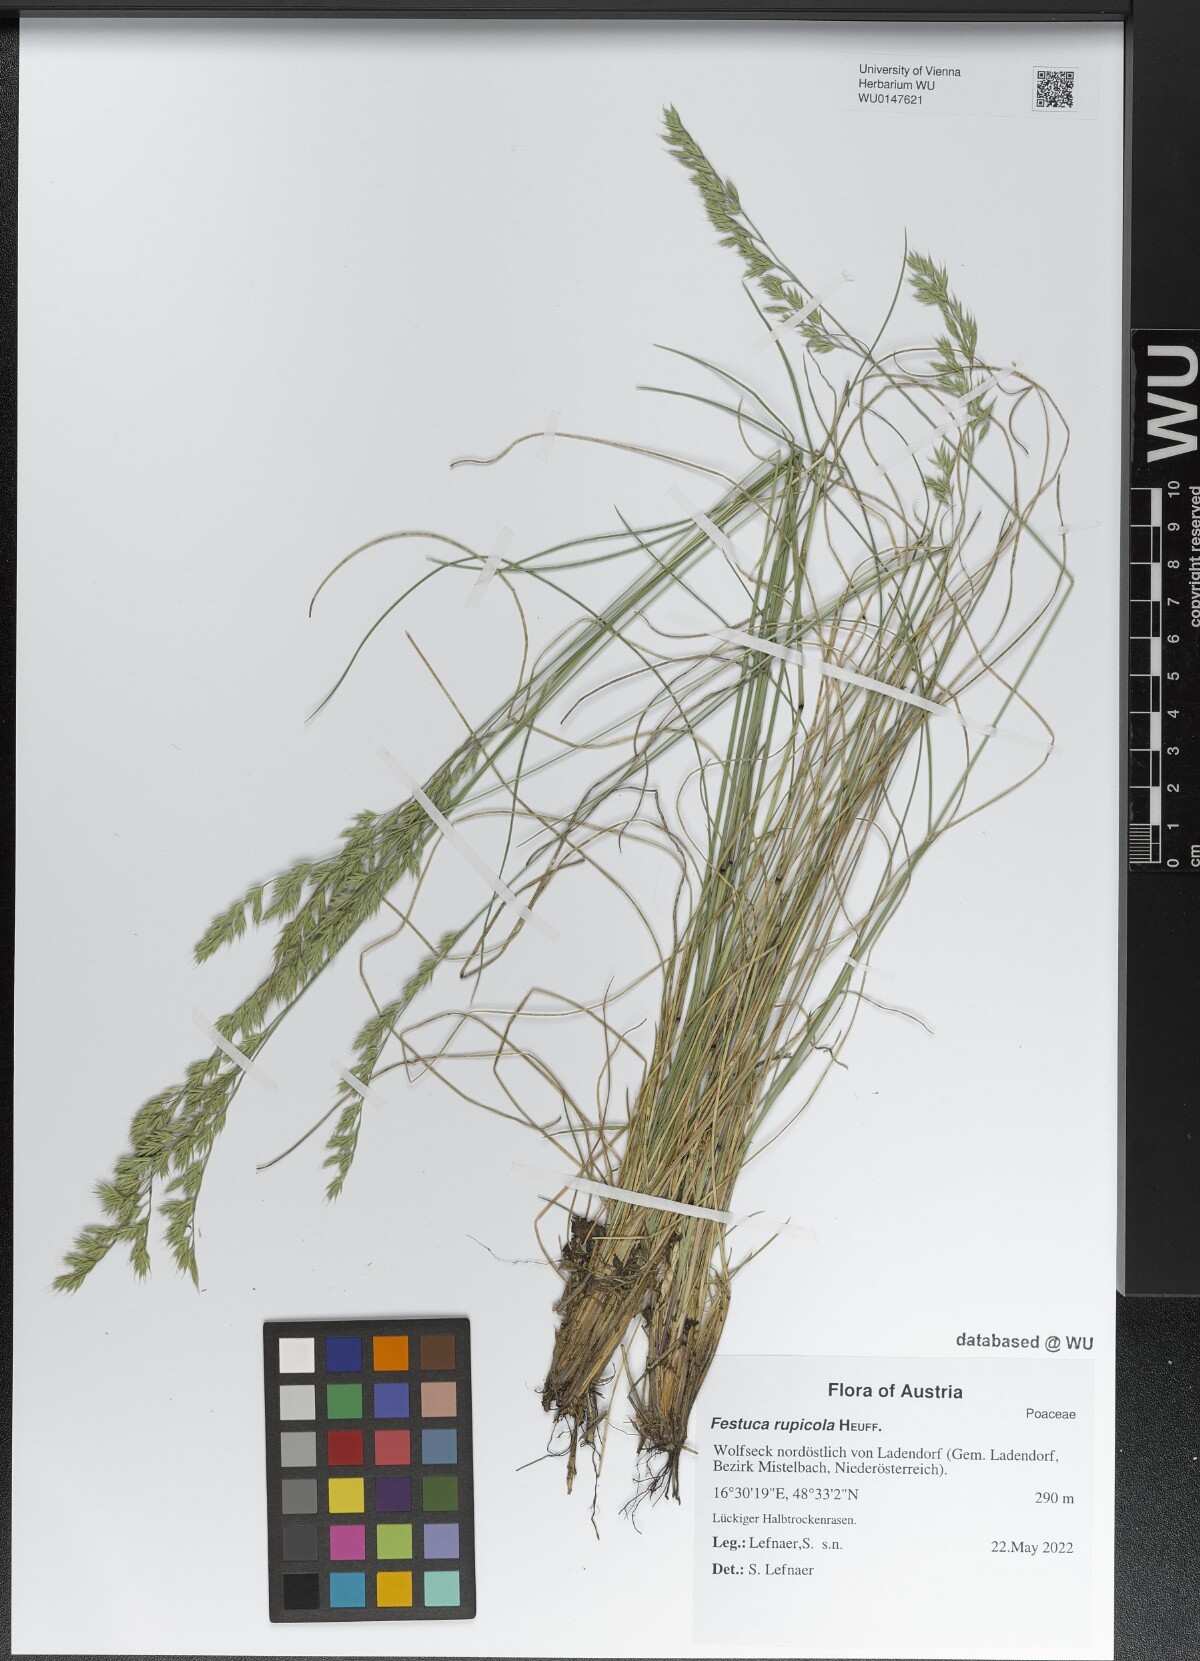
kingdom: Plantae
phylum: Tracheophyta
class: Liliopsida
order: Poales
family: Poaceae
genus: Festuca
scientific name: Festuca rupicola
